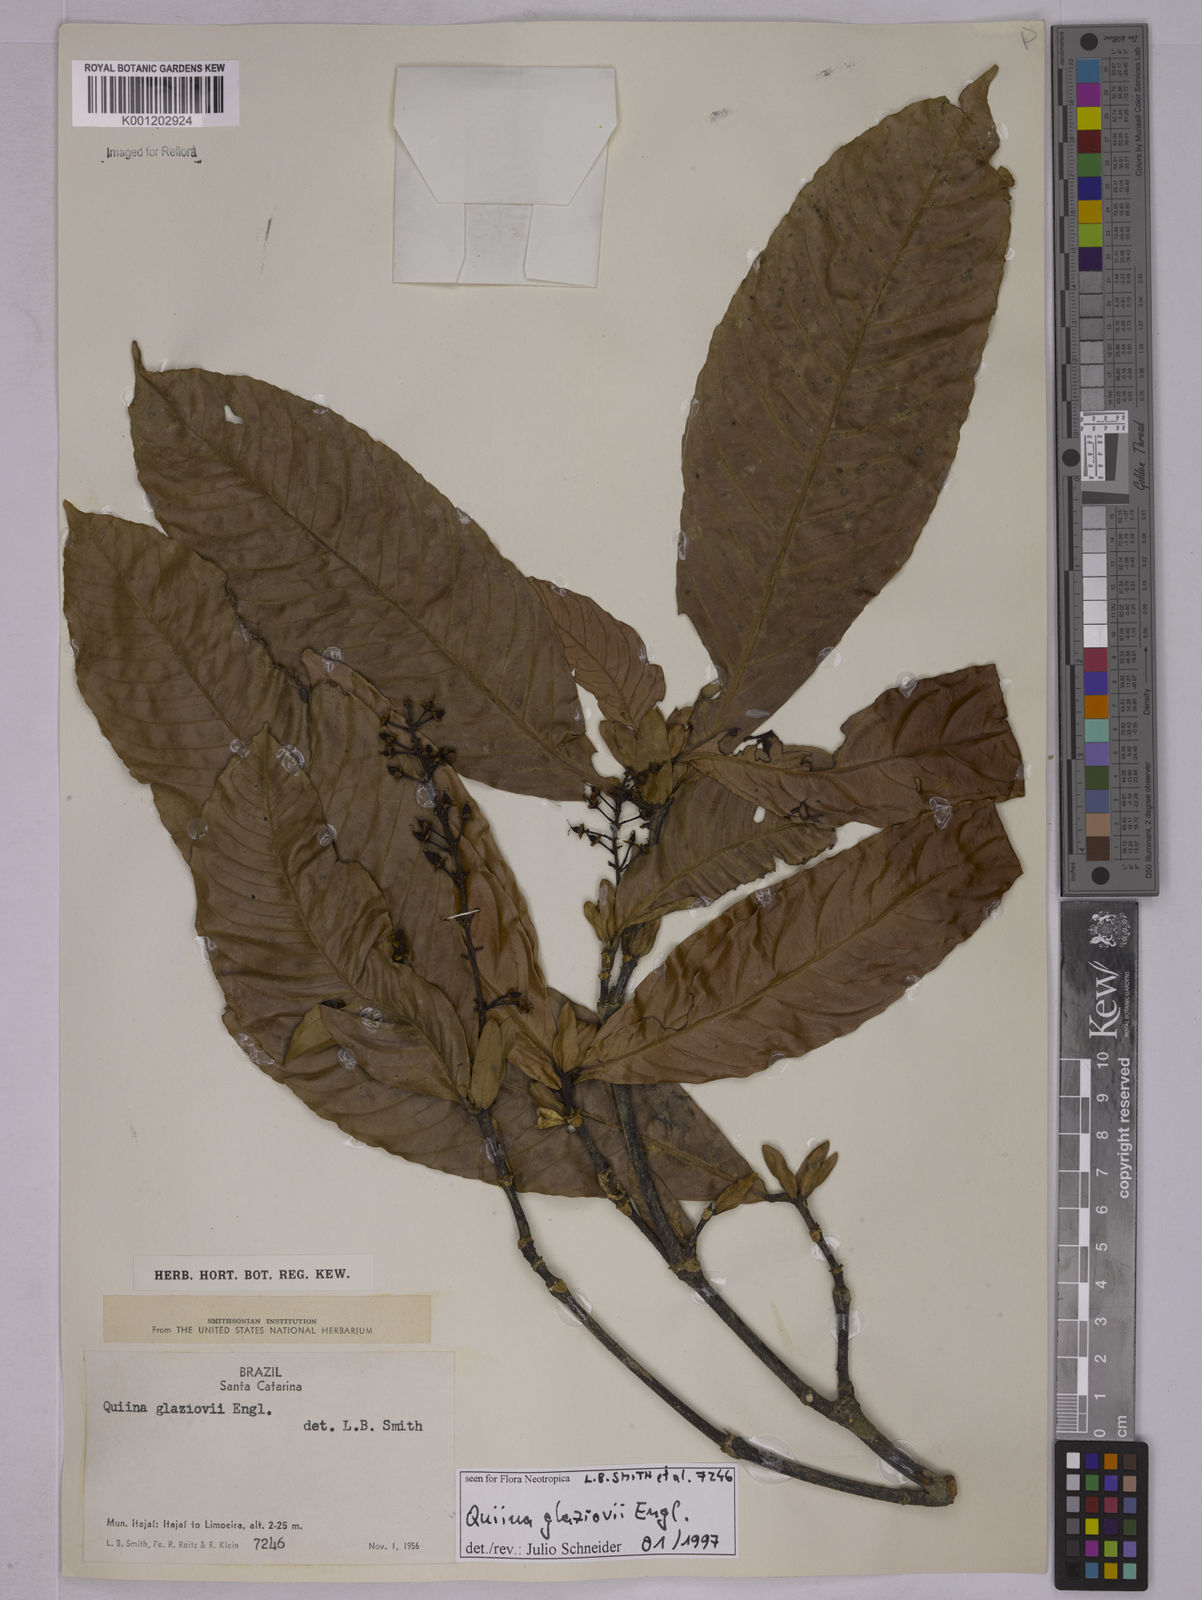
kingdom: Plantae
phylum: Tracheophyta
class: Magnoliopsida
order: Malpighiales
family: Quiinaceae
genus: Quiina
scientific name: Quiina glaziovii
